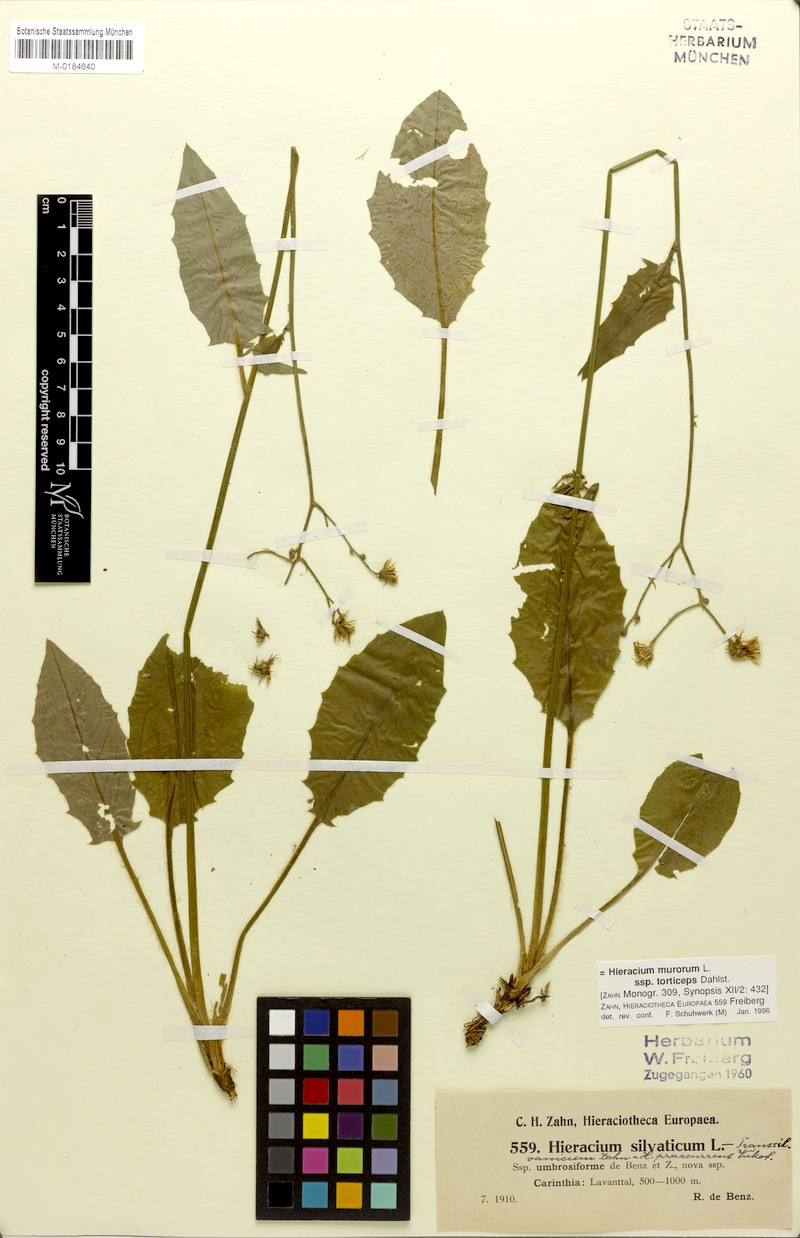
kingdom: Plantae
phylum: Tracheophyta
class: Magnoliopsida
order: Asterales
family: Asteraceae
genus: Hieracium
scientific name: Hieracium murorum
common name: Wall hawkweed
